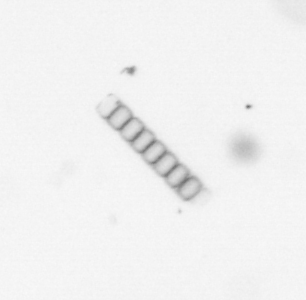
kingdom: Chromista
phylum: Ochrophyta
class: Bacillariophyceae
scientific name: Bacillariophyceae
